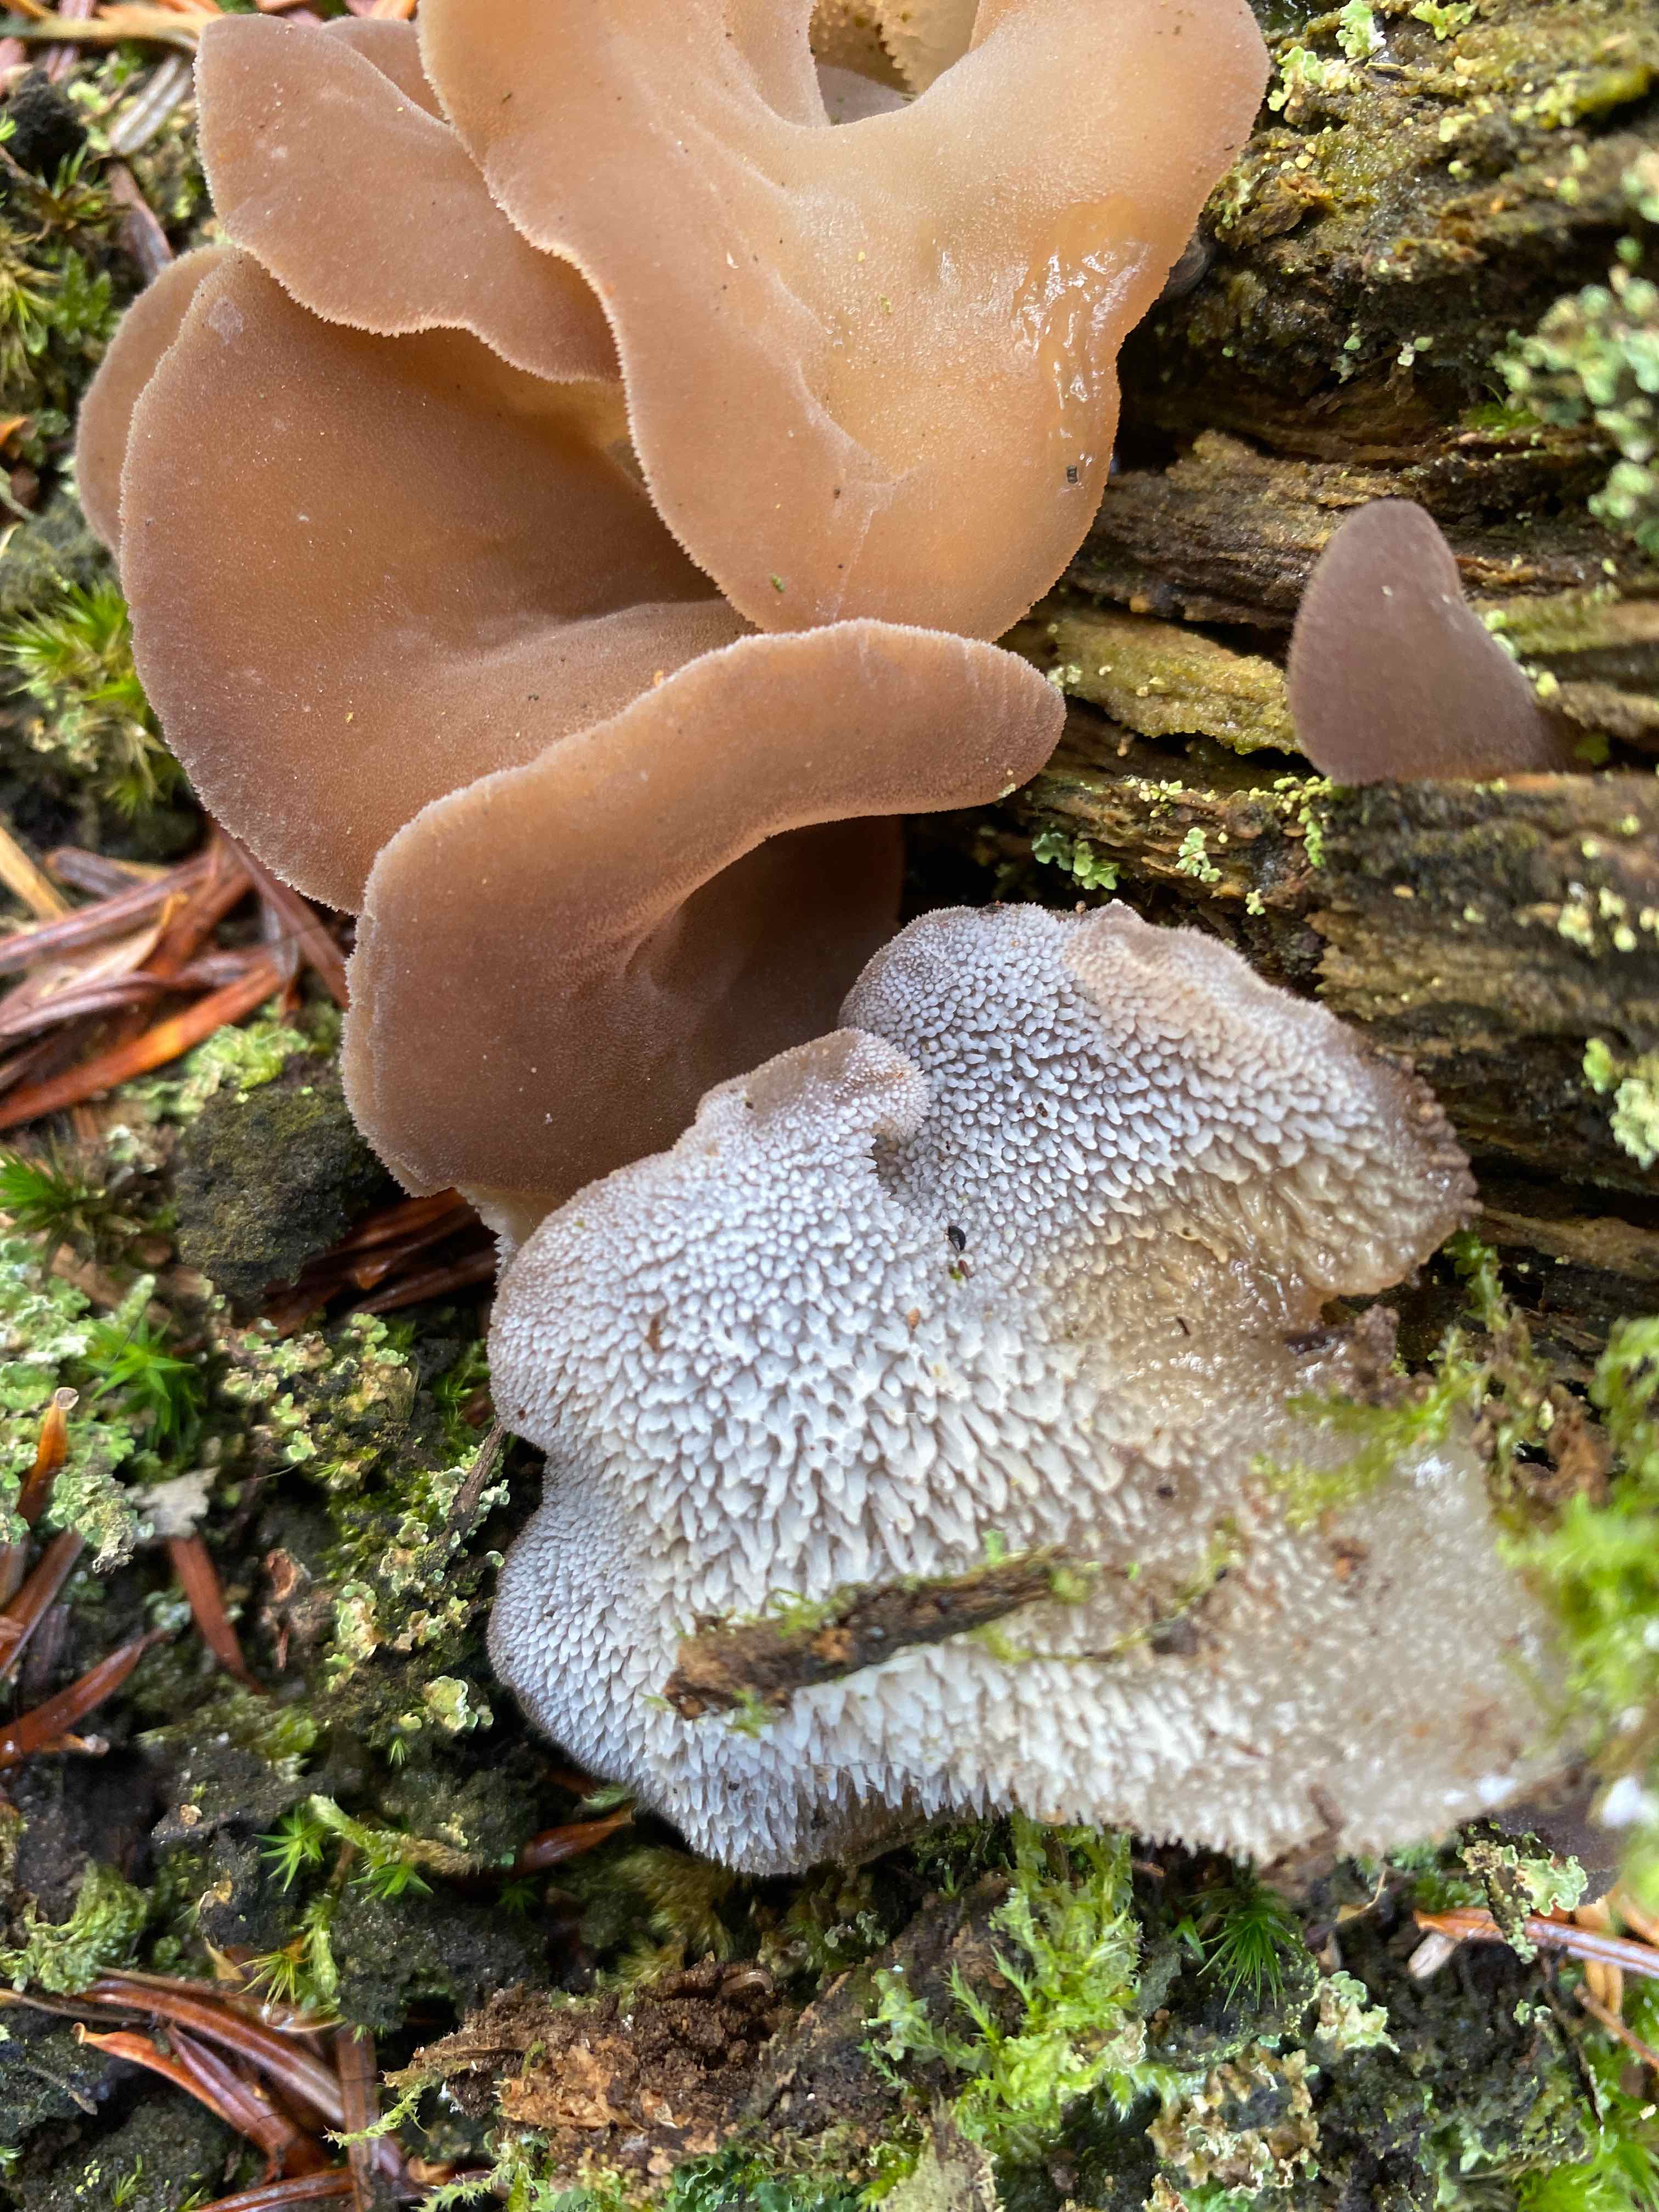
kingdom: Fungi
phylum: Basidiomycota
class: Agaricomycetes
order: Auriculariales
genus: Pseudohydnum
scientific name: Pseudohydnum gelatinosum
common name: bævretand
